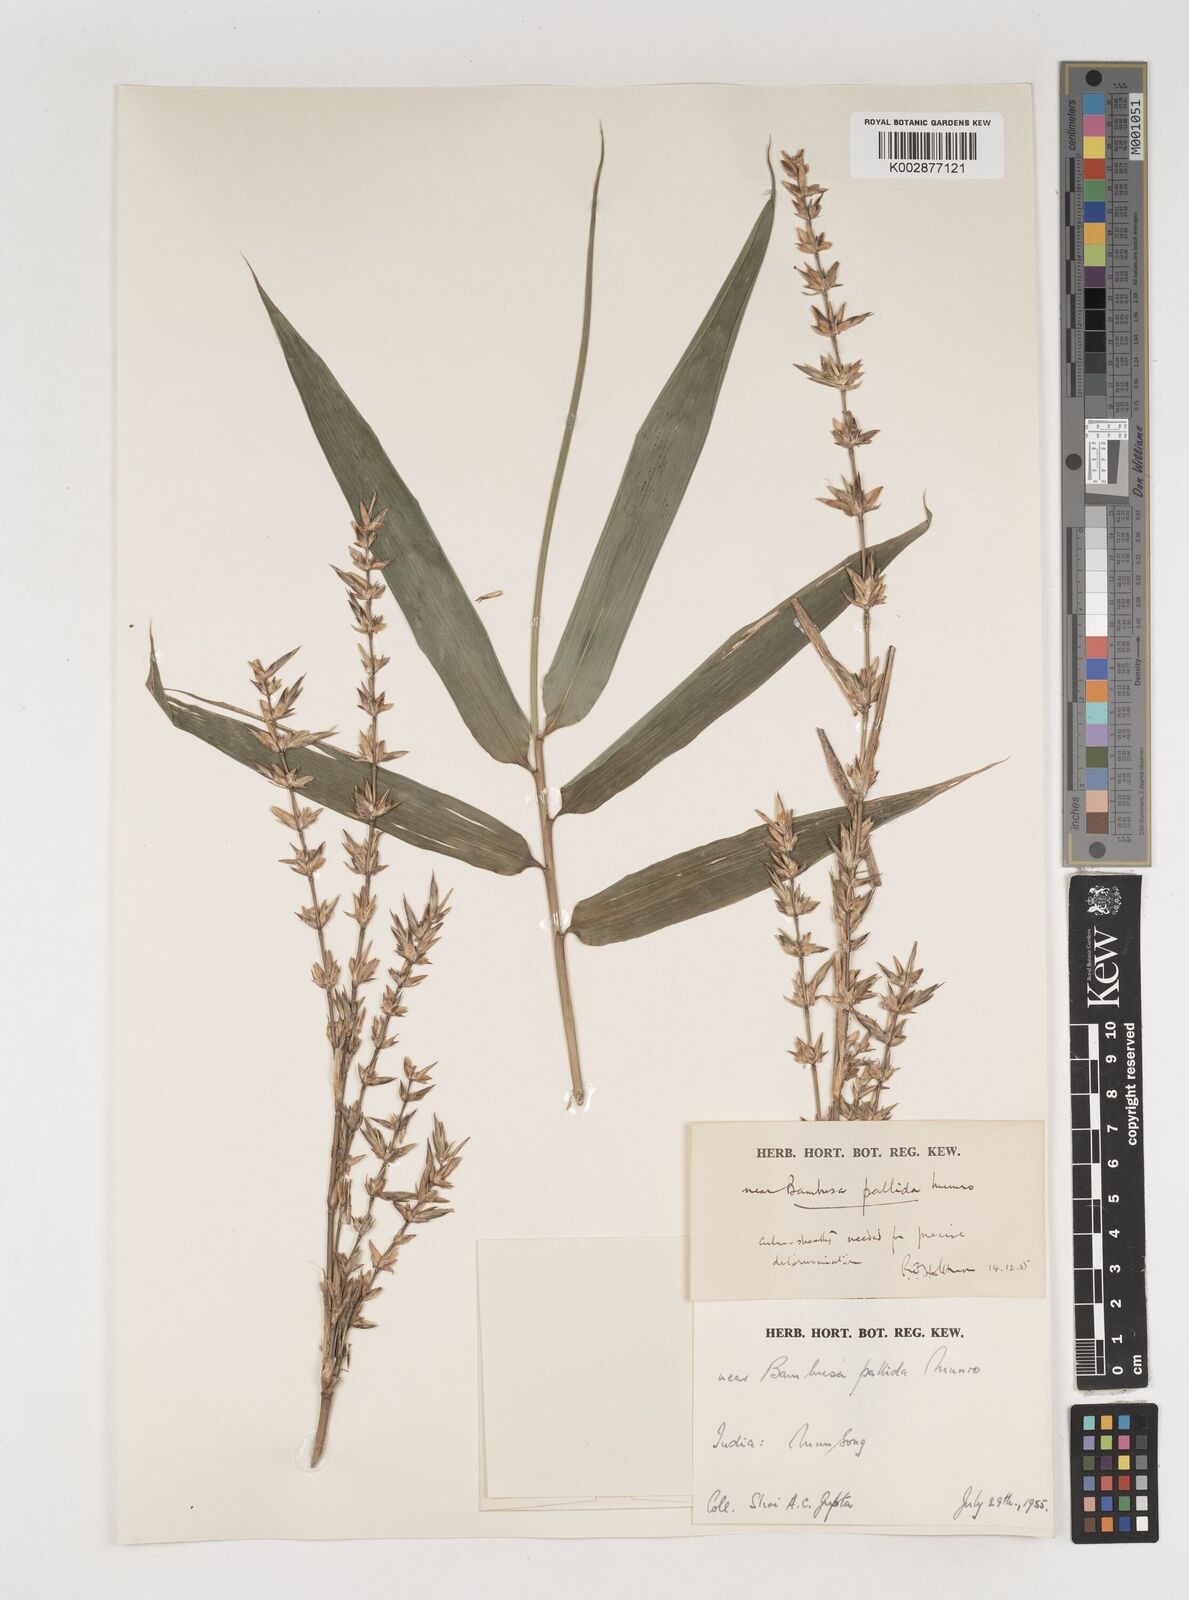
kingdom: Plantae
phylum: Tracheophyta
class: Liliopsida
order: Poales
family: Poaceae
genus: Bambusa
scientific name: Bambusa
